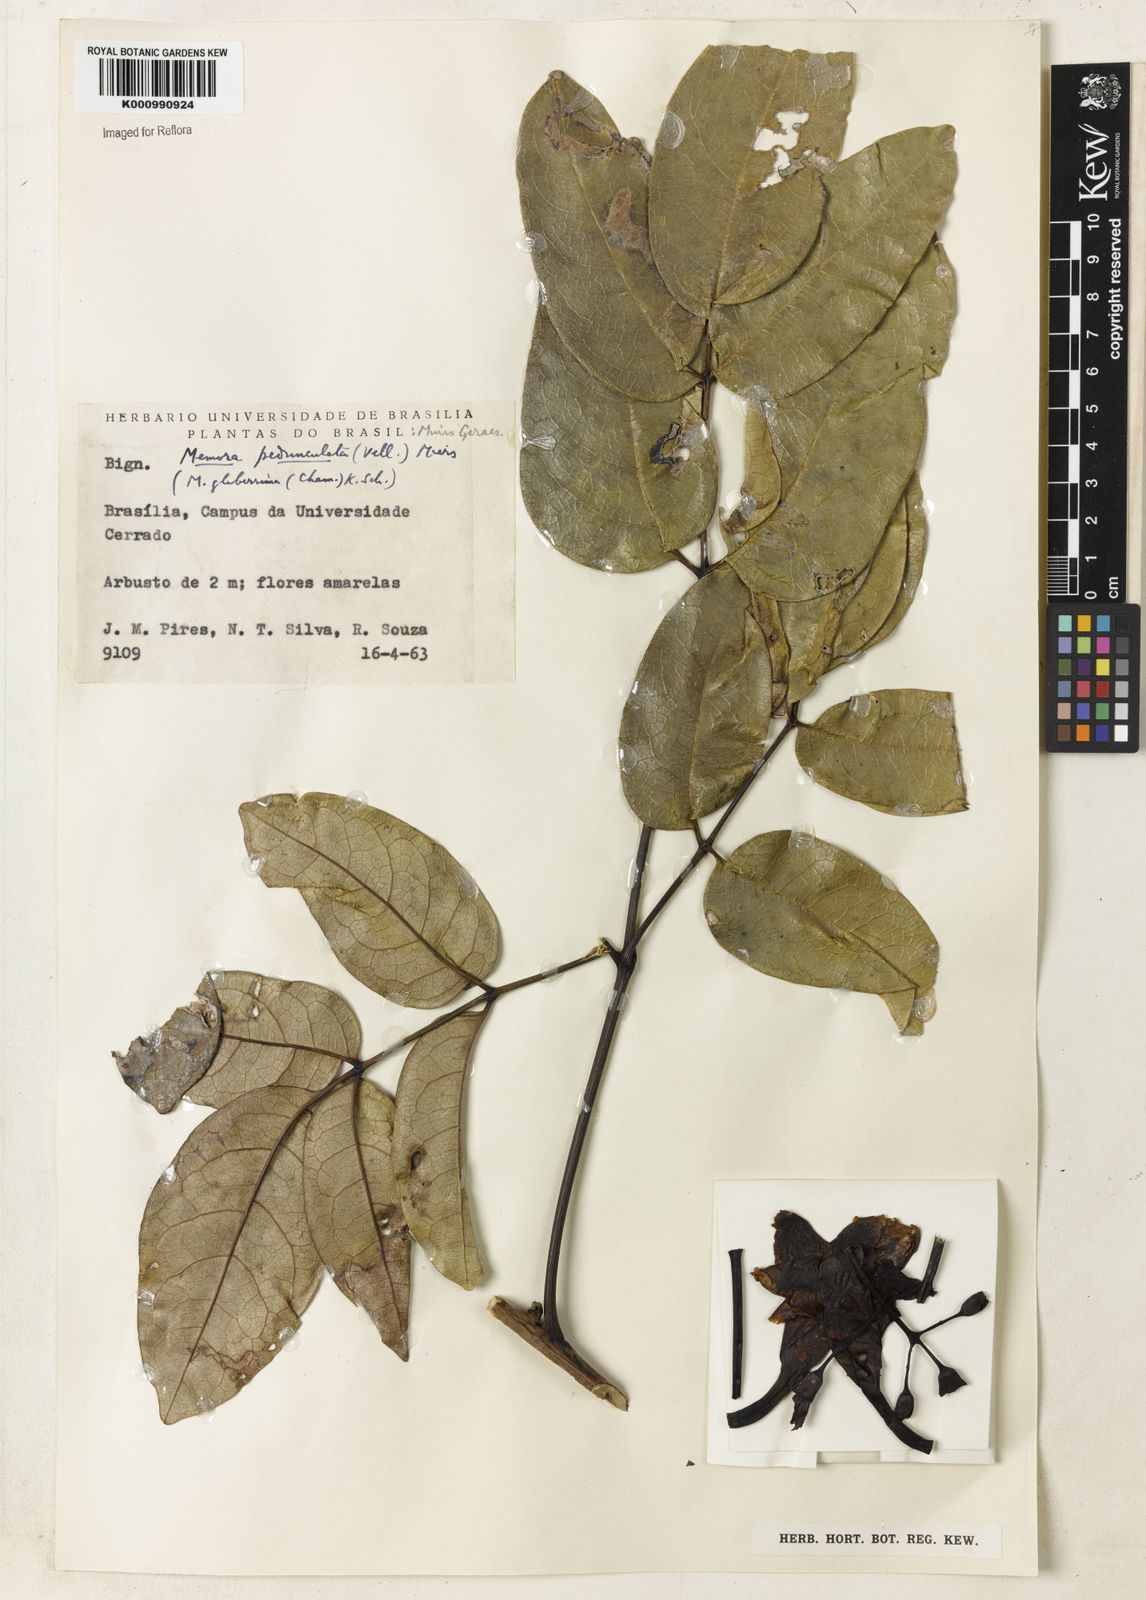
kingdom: Plantae
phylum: Tracheophyta
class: Magnoliopsida
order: Lamiales
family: Bignoniaceae
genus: Adenocalymma
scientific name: Adenocalymma pedunculatum
